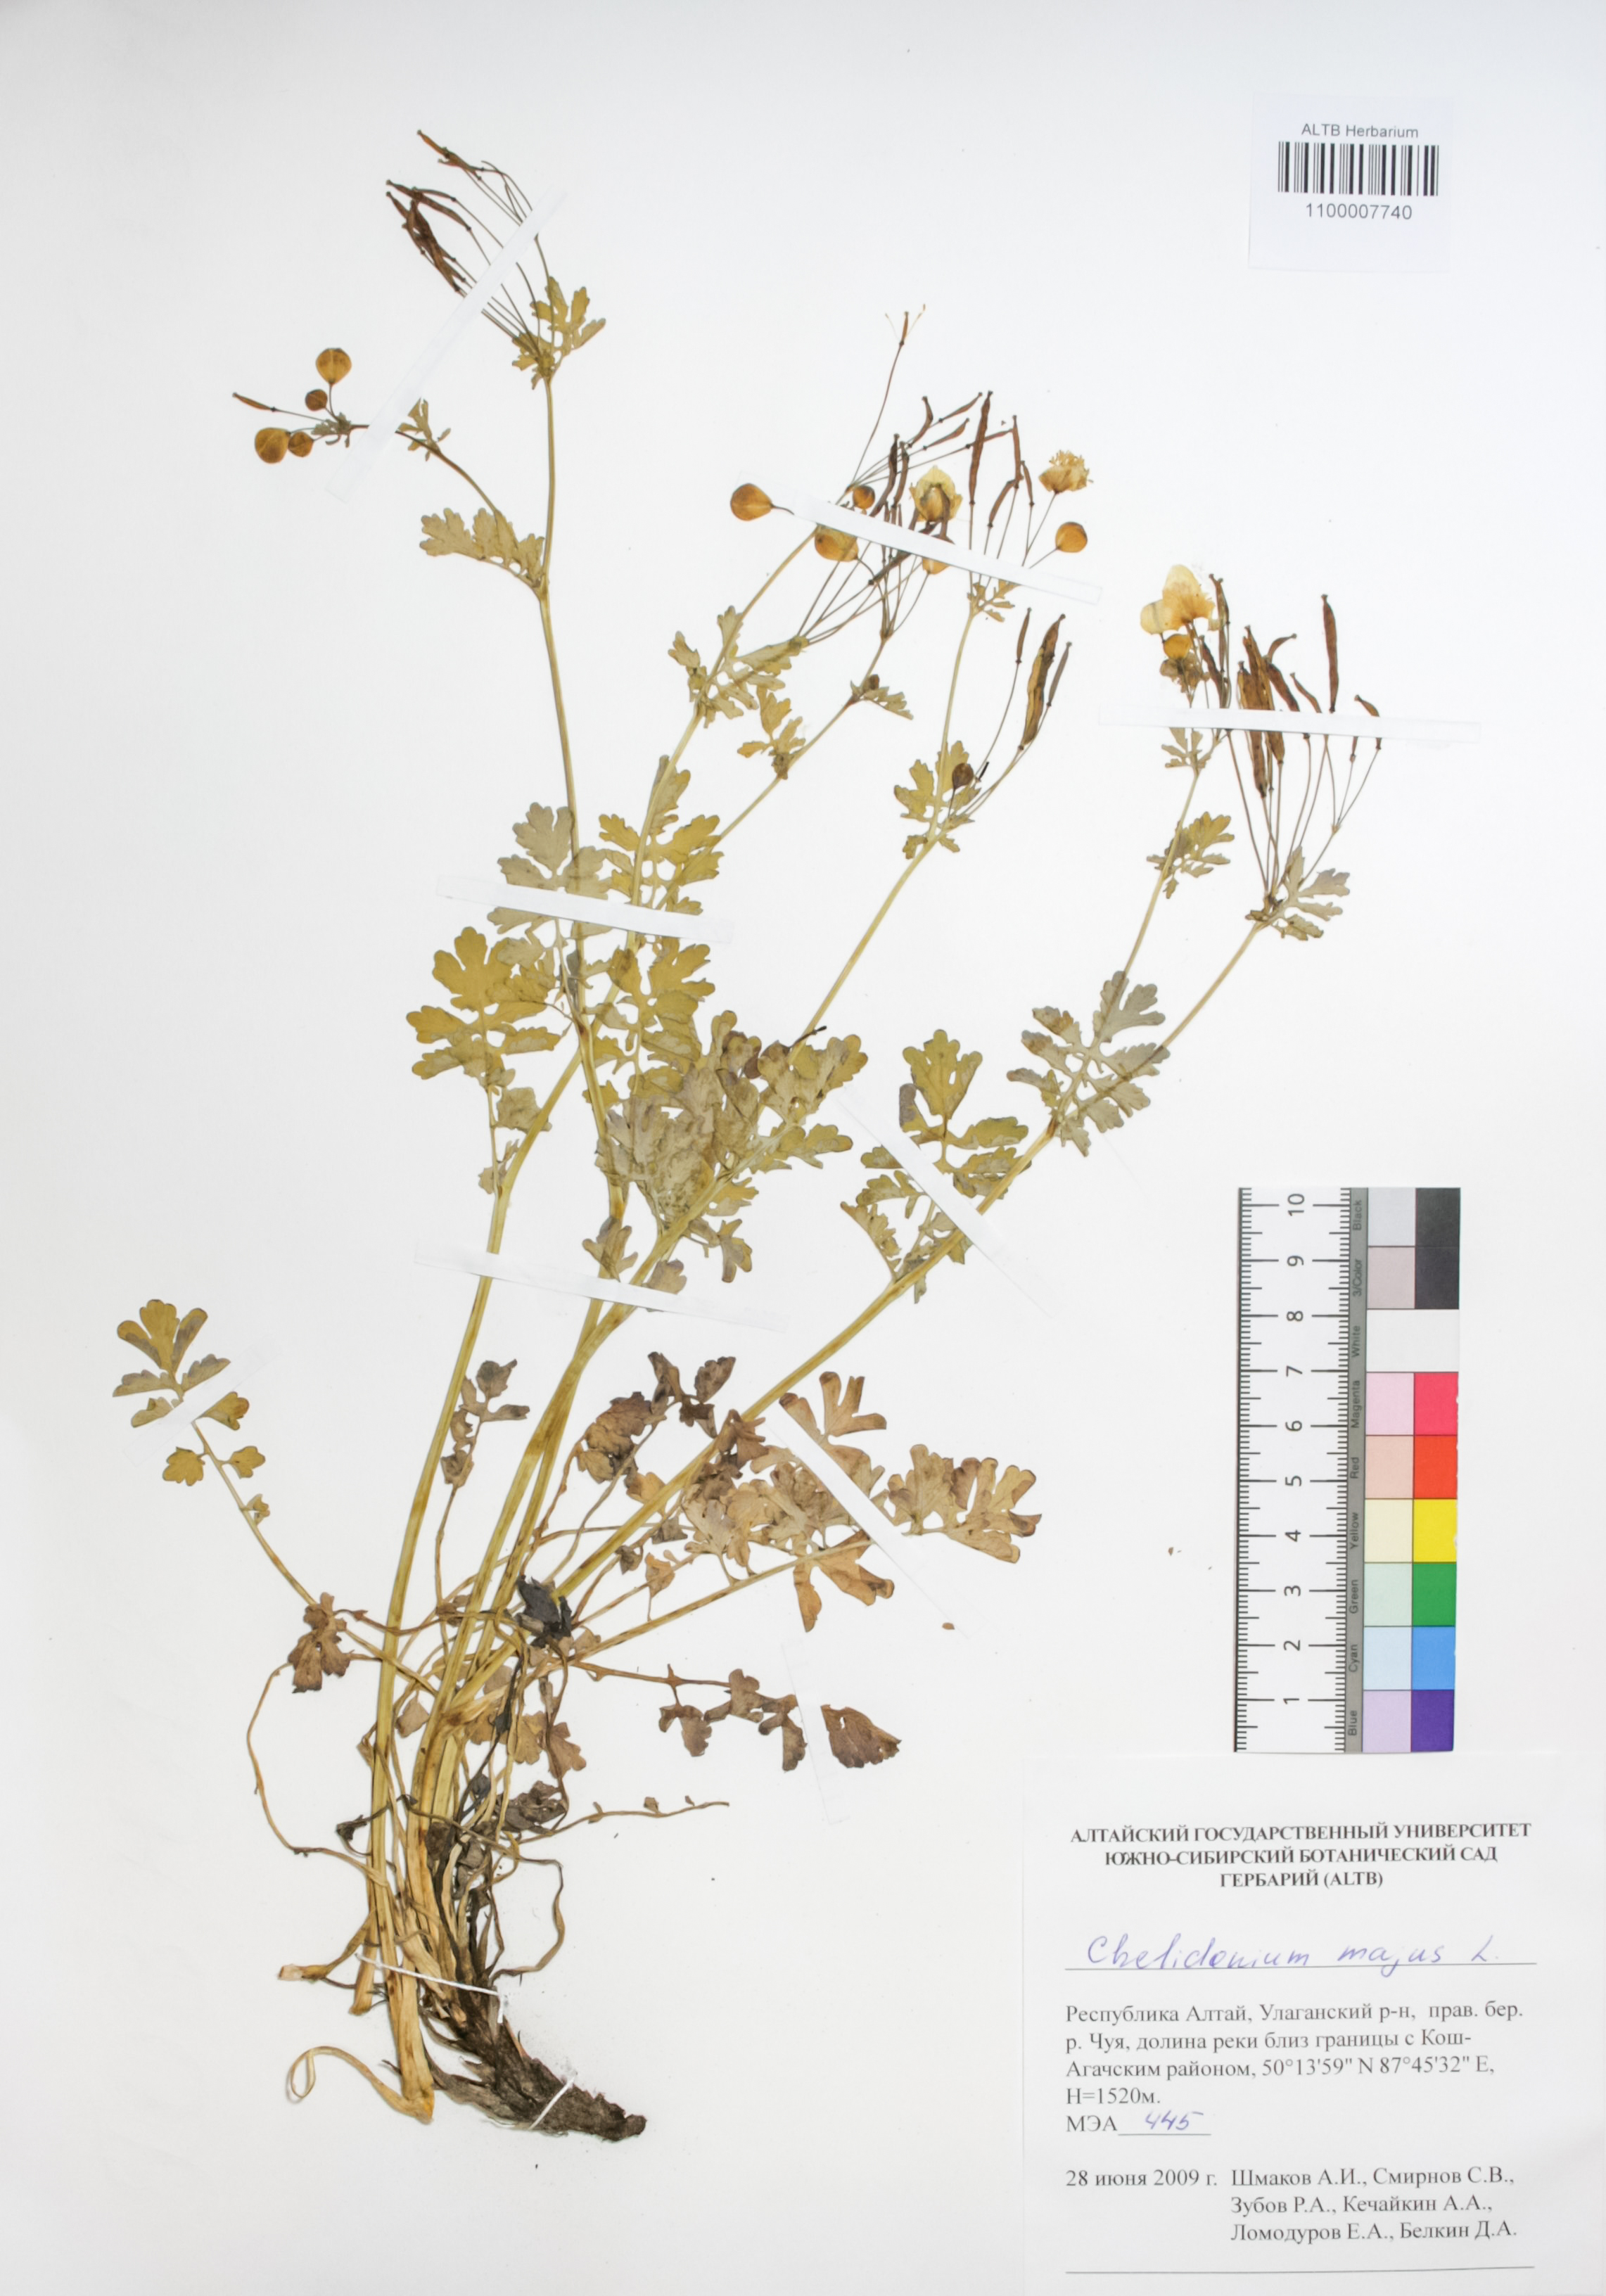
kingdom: Plantae
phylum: Tracheophyta
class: Magnoliopsida
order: Ranunculales
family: Papaveraceae
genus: Chelidonium
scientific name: Chelidonium majus
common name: Greater celandine
